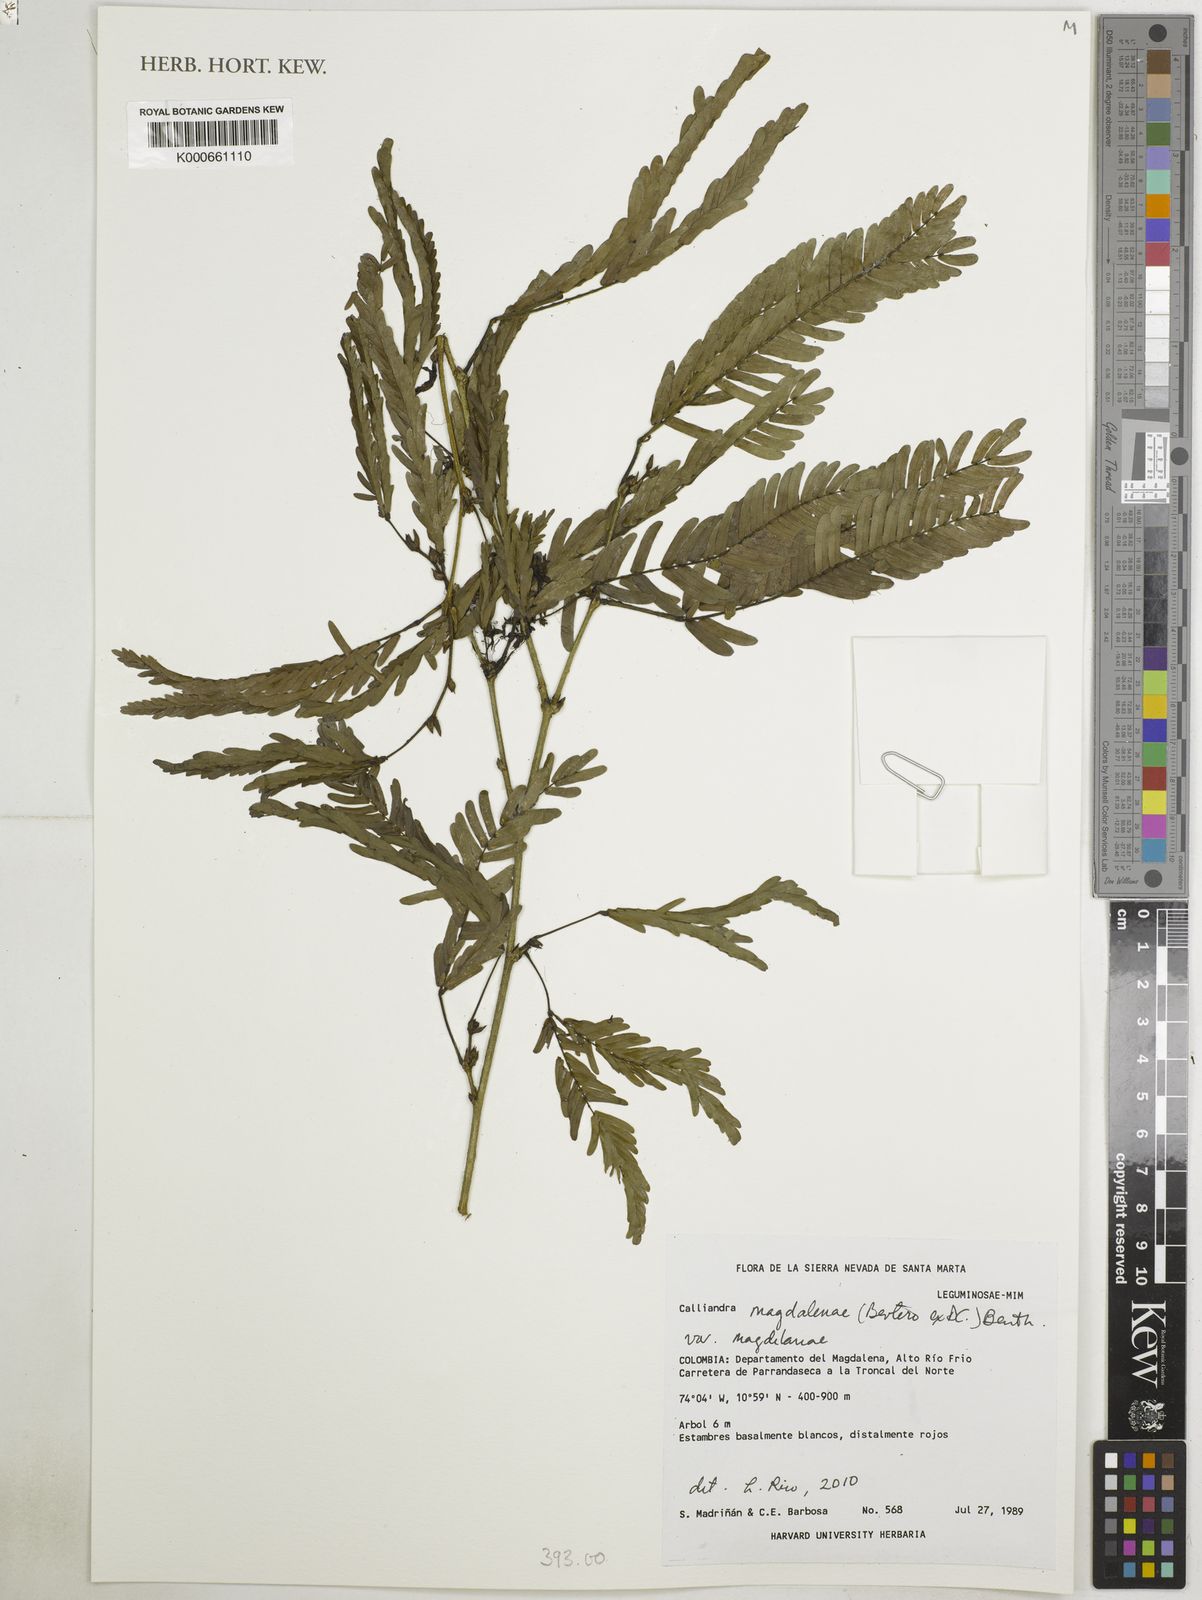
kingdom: Plantae
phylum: Tracheophyta
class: Magnoliopsida
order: Fabales
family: Fabaceae
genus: Calliandra
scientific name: Calliandra magdalenae
